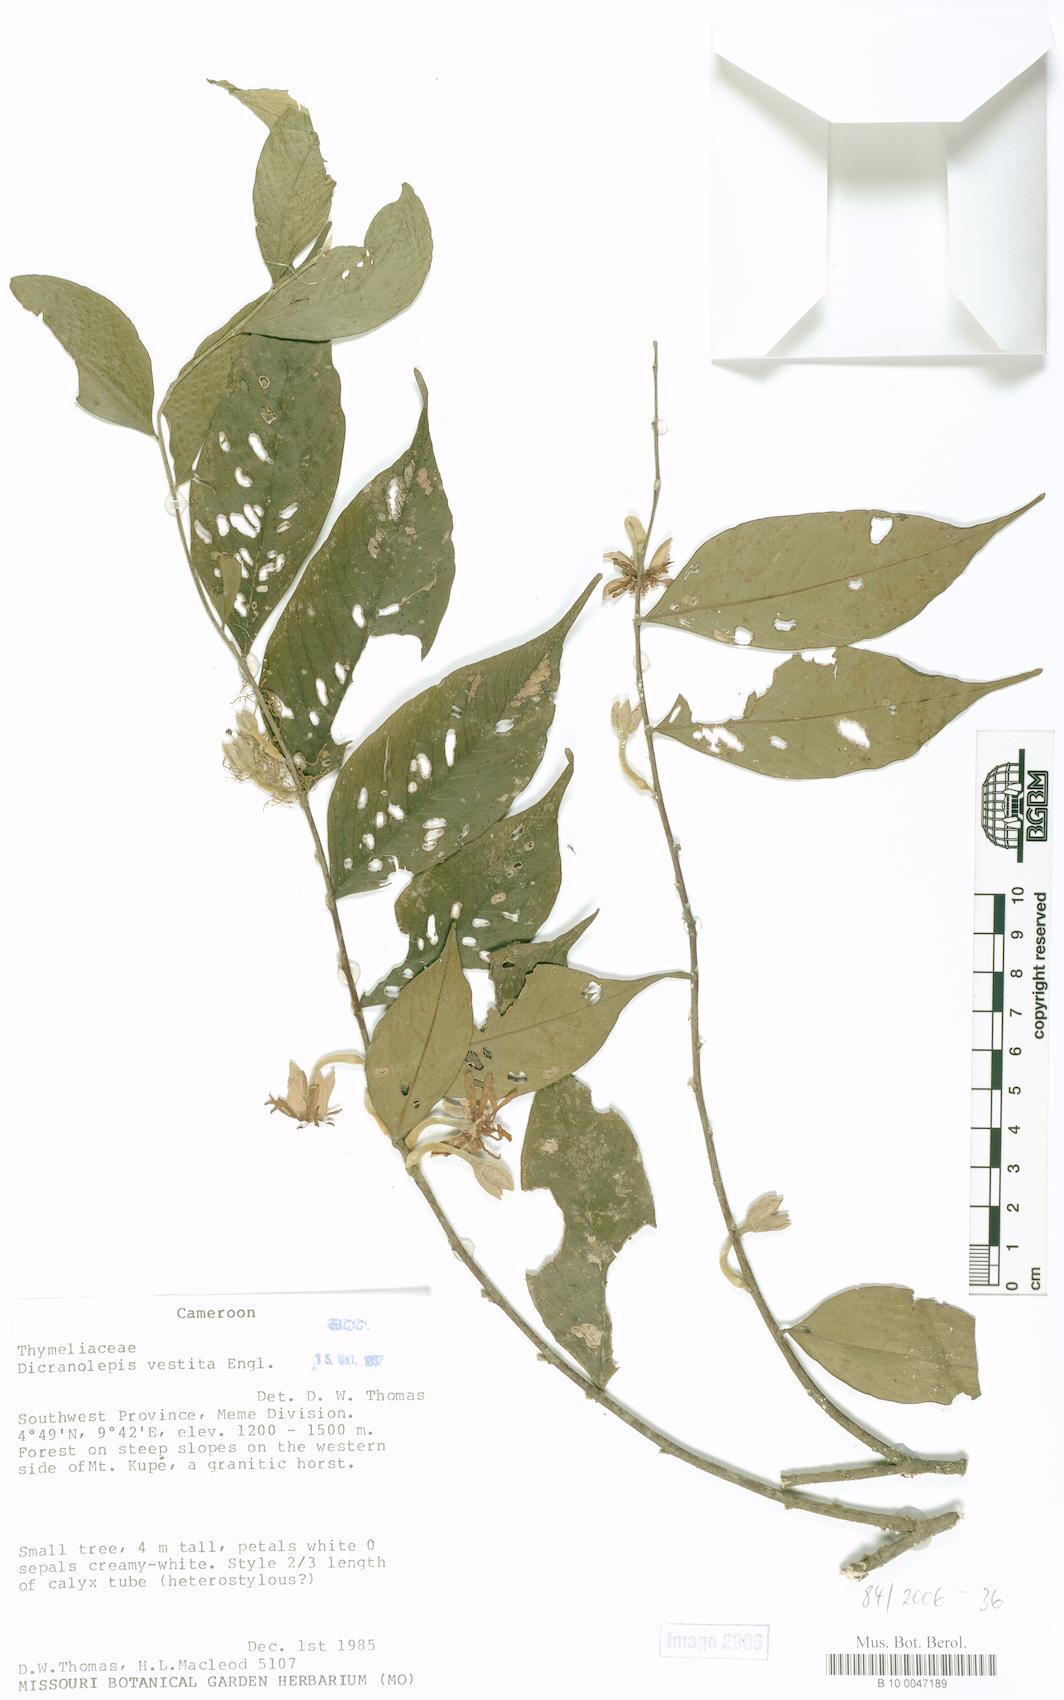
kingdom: Plantae
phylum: Tracheophyta
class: Magnoliopsida
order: Malvales
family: Thymelaeaceae
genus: Dicranolepis
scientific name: Dicranolepis vestita
